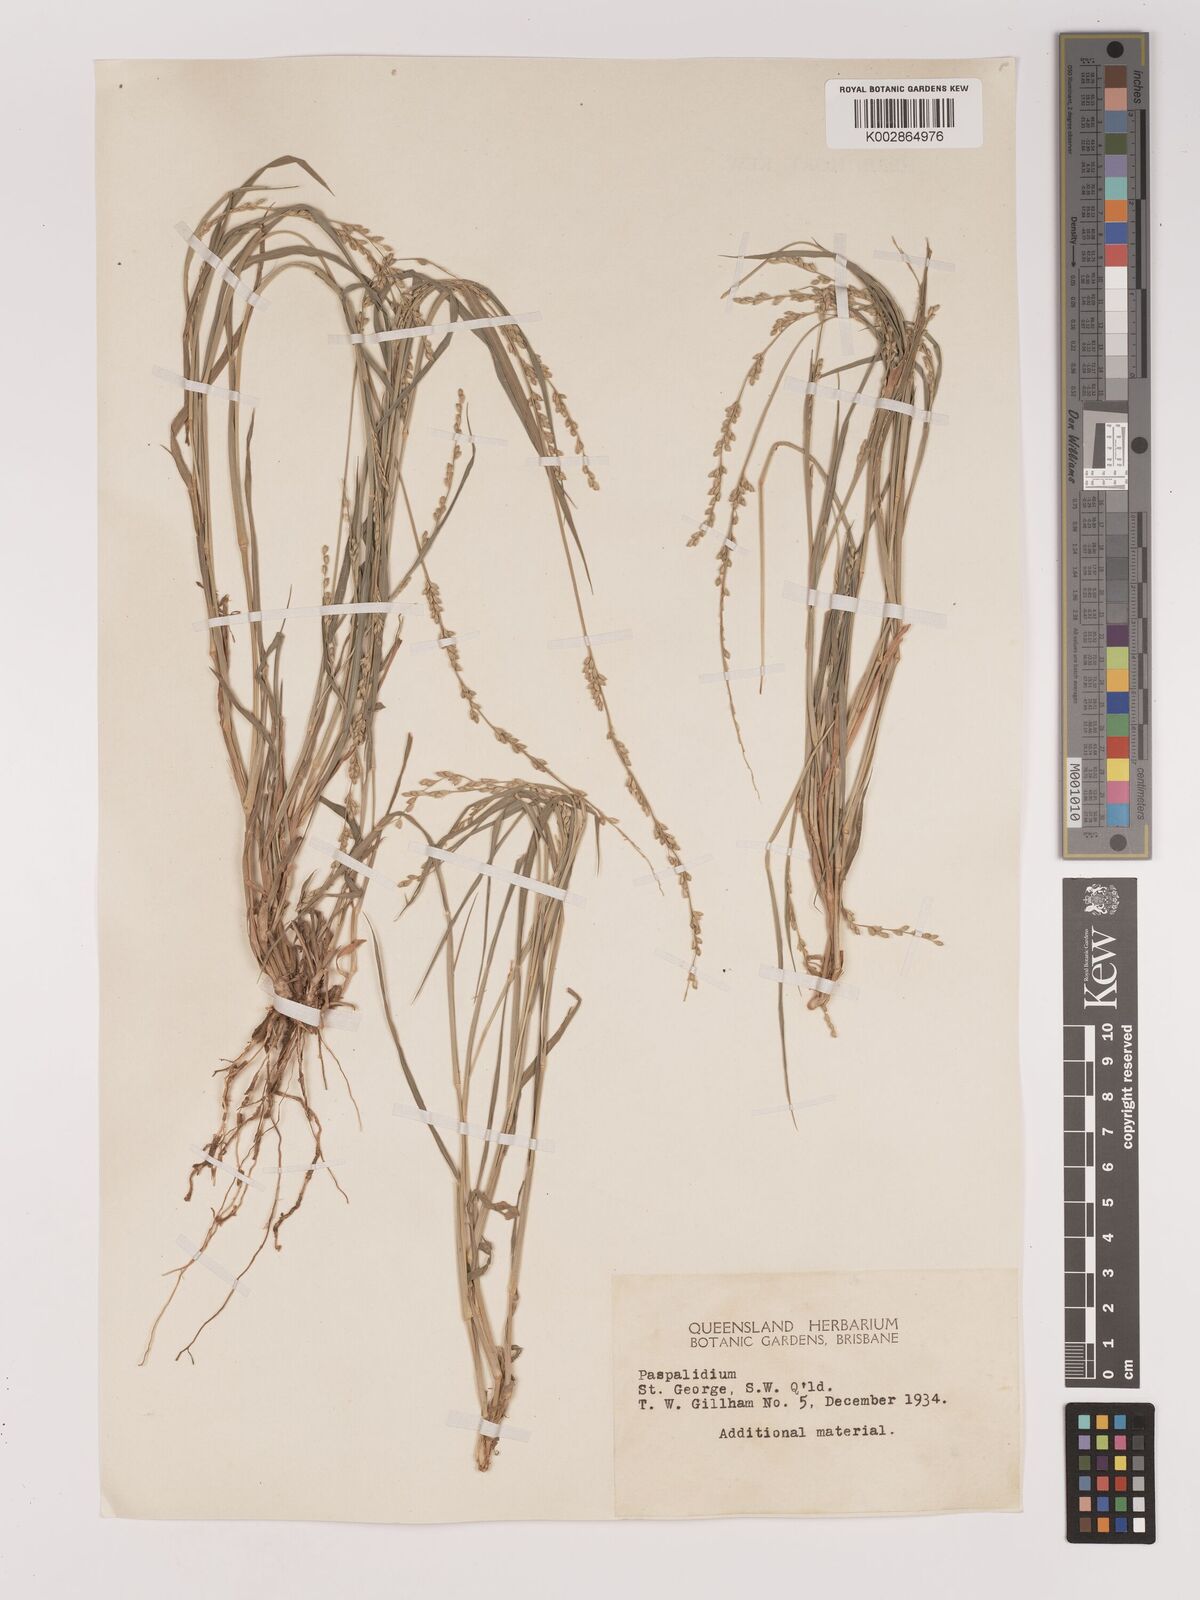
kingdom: Plantae
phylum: Tracheophyta
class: Liliopsida
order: Poales
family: Poaceae
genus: Setaria
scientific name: Setaria
